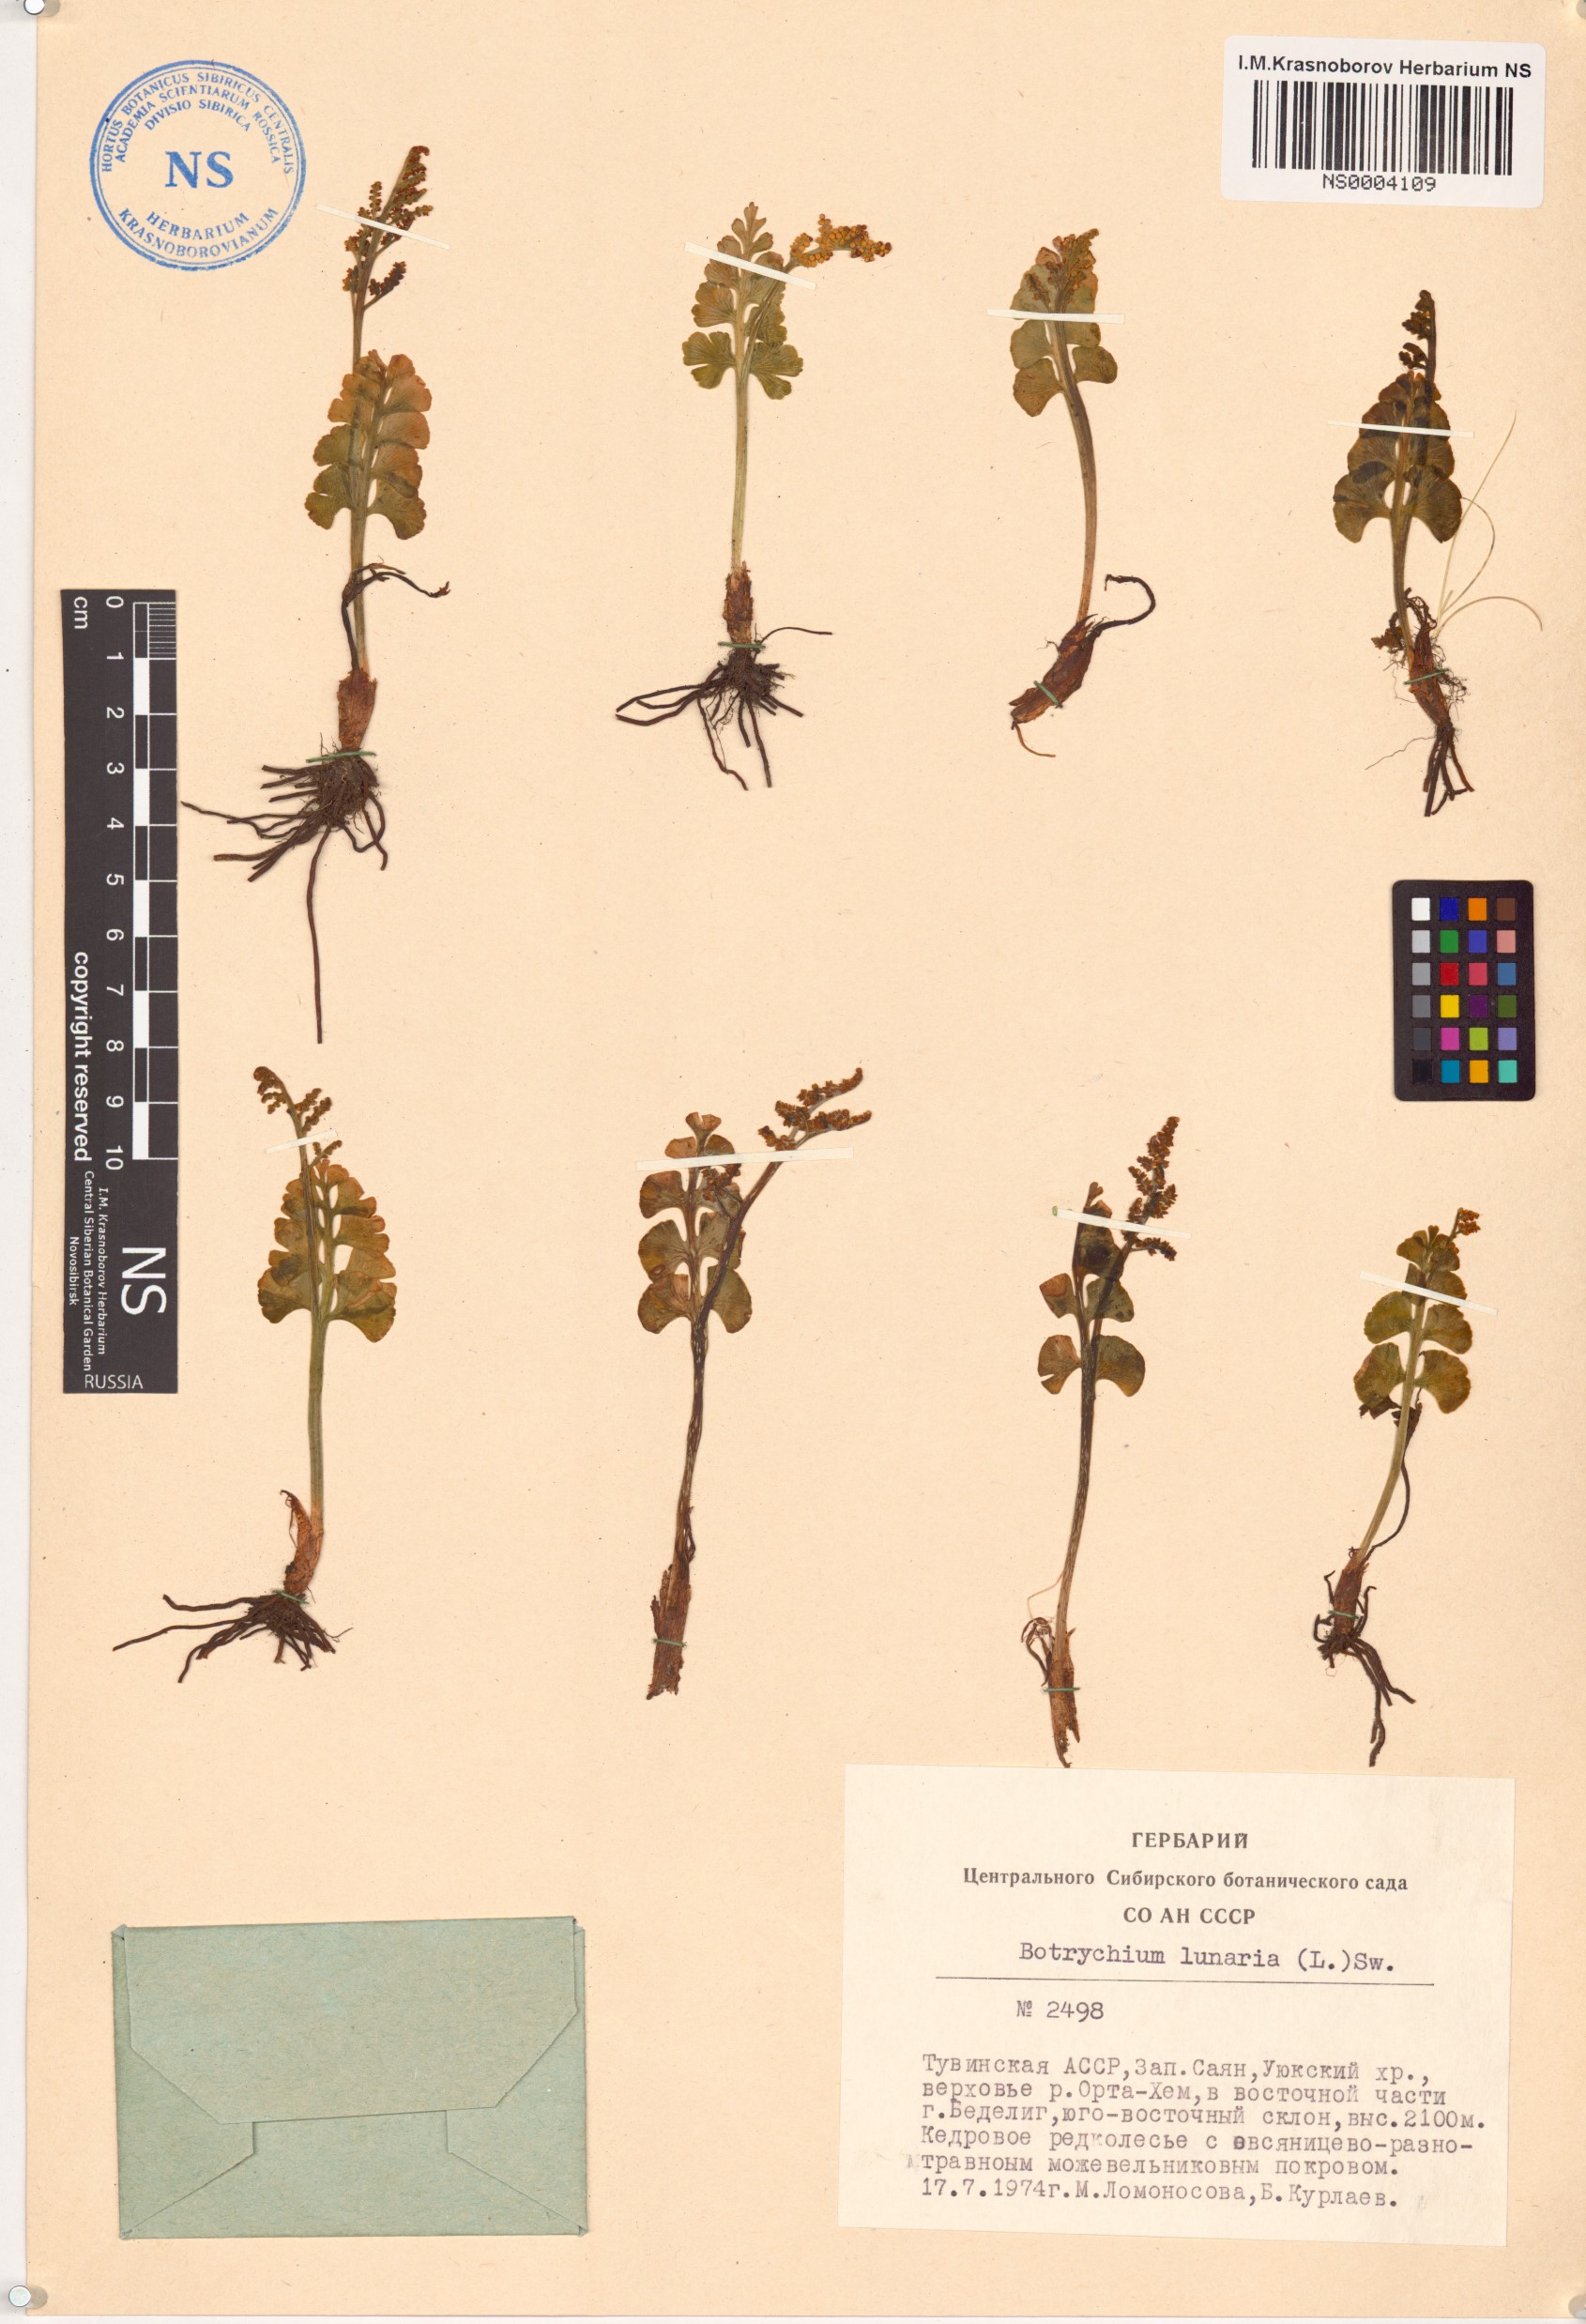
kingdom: Plantae
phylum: Tracheophyta
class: Polypodiopsida
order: Ophioglossales
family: Ophioglossaceae
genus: Botrychium
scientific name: Botrychium lunaria
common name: Moonwort
